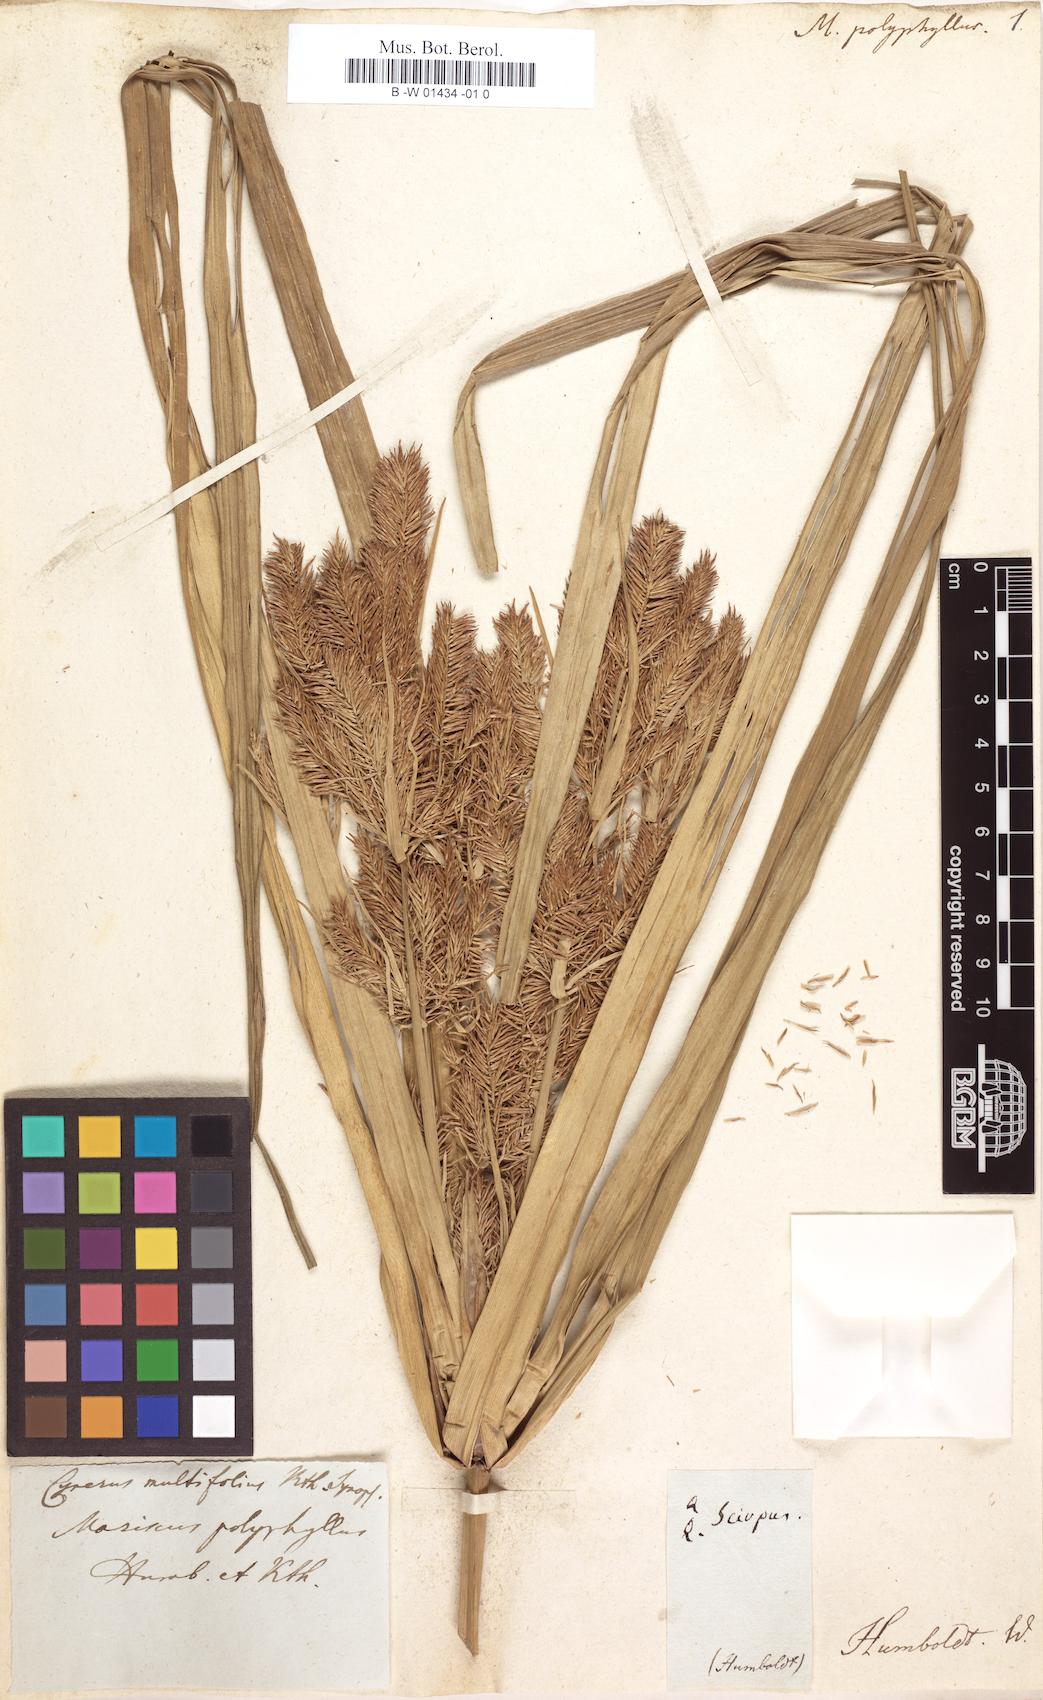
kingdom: Plantae
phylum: Tracheophyta
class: Liliopsida
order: Poales
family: Cyperaceae
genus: Cyperus
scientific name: Cyperus multifolius
